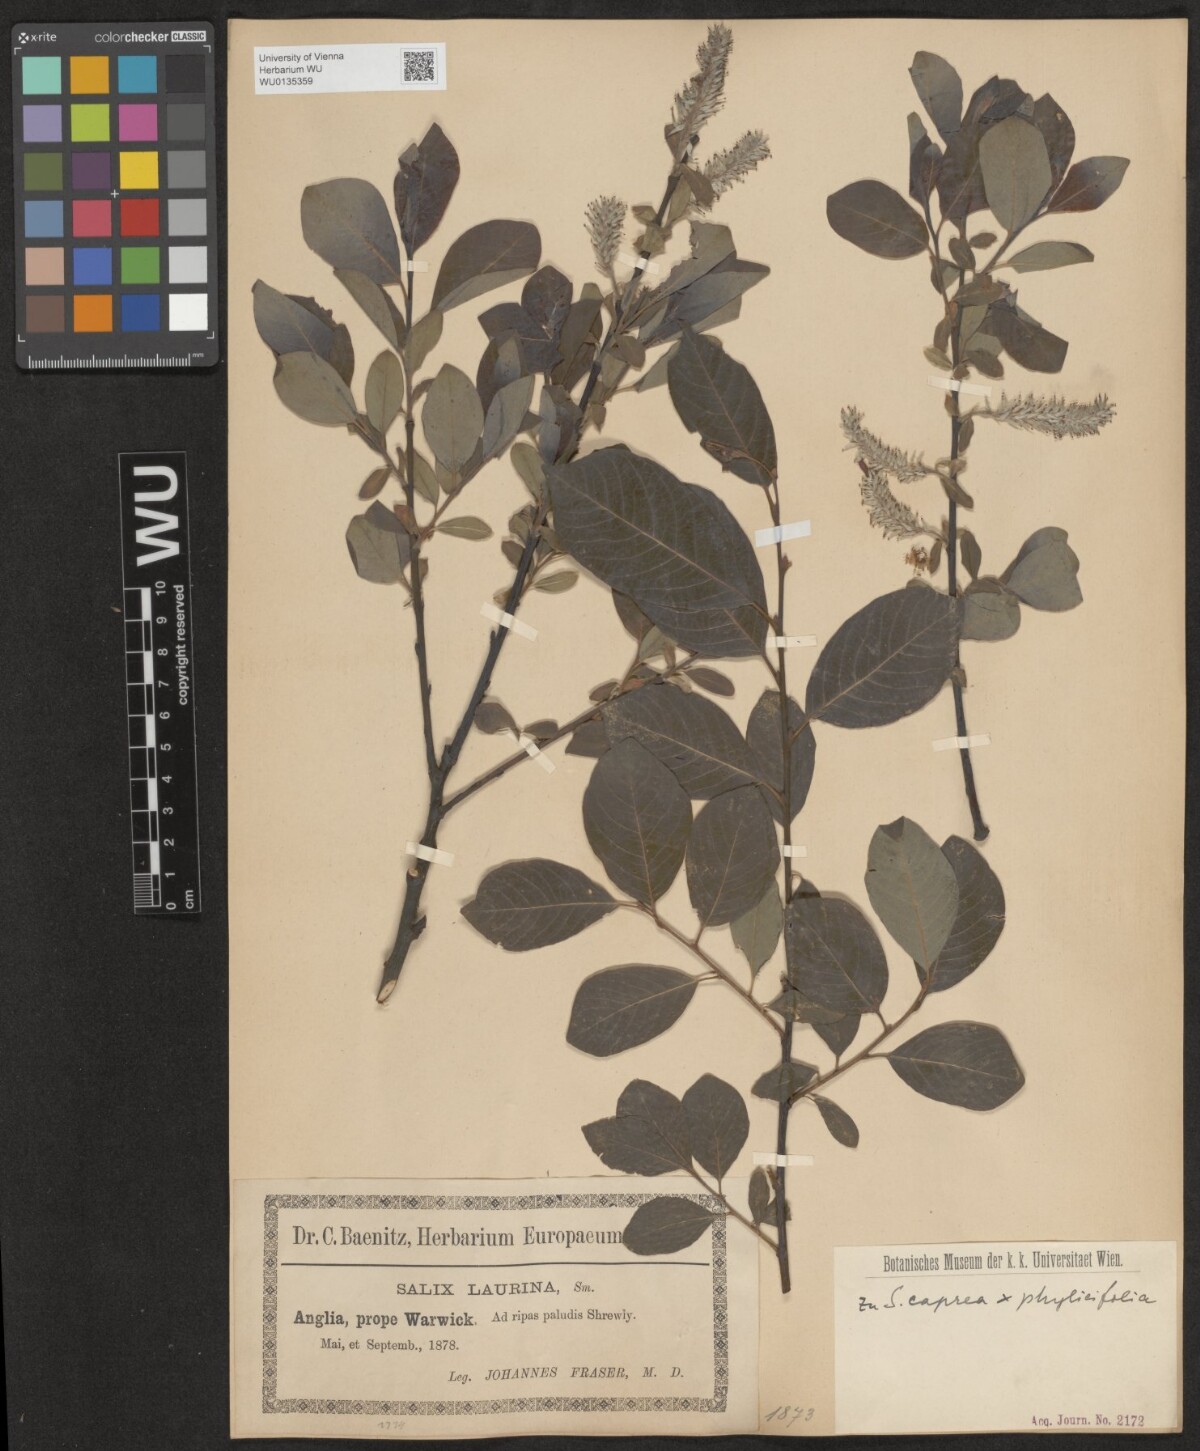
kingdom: Plantae
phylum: Tracheophyta
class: Magnoliopsida
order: Malpighiales
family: Salicaceae
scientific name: Salicaceae
